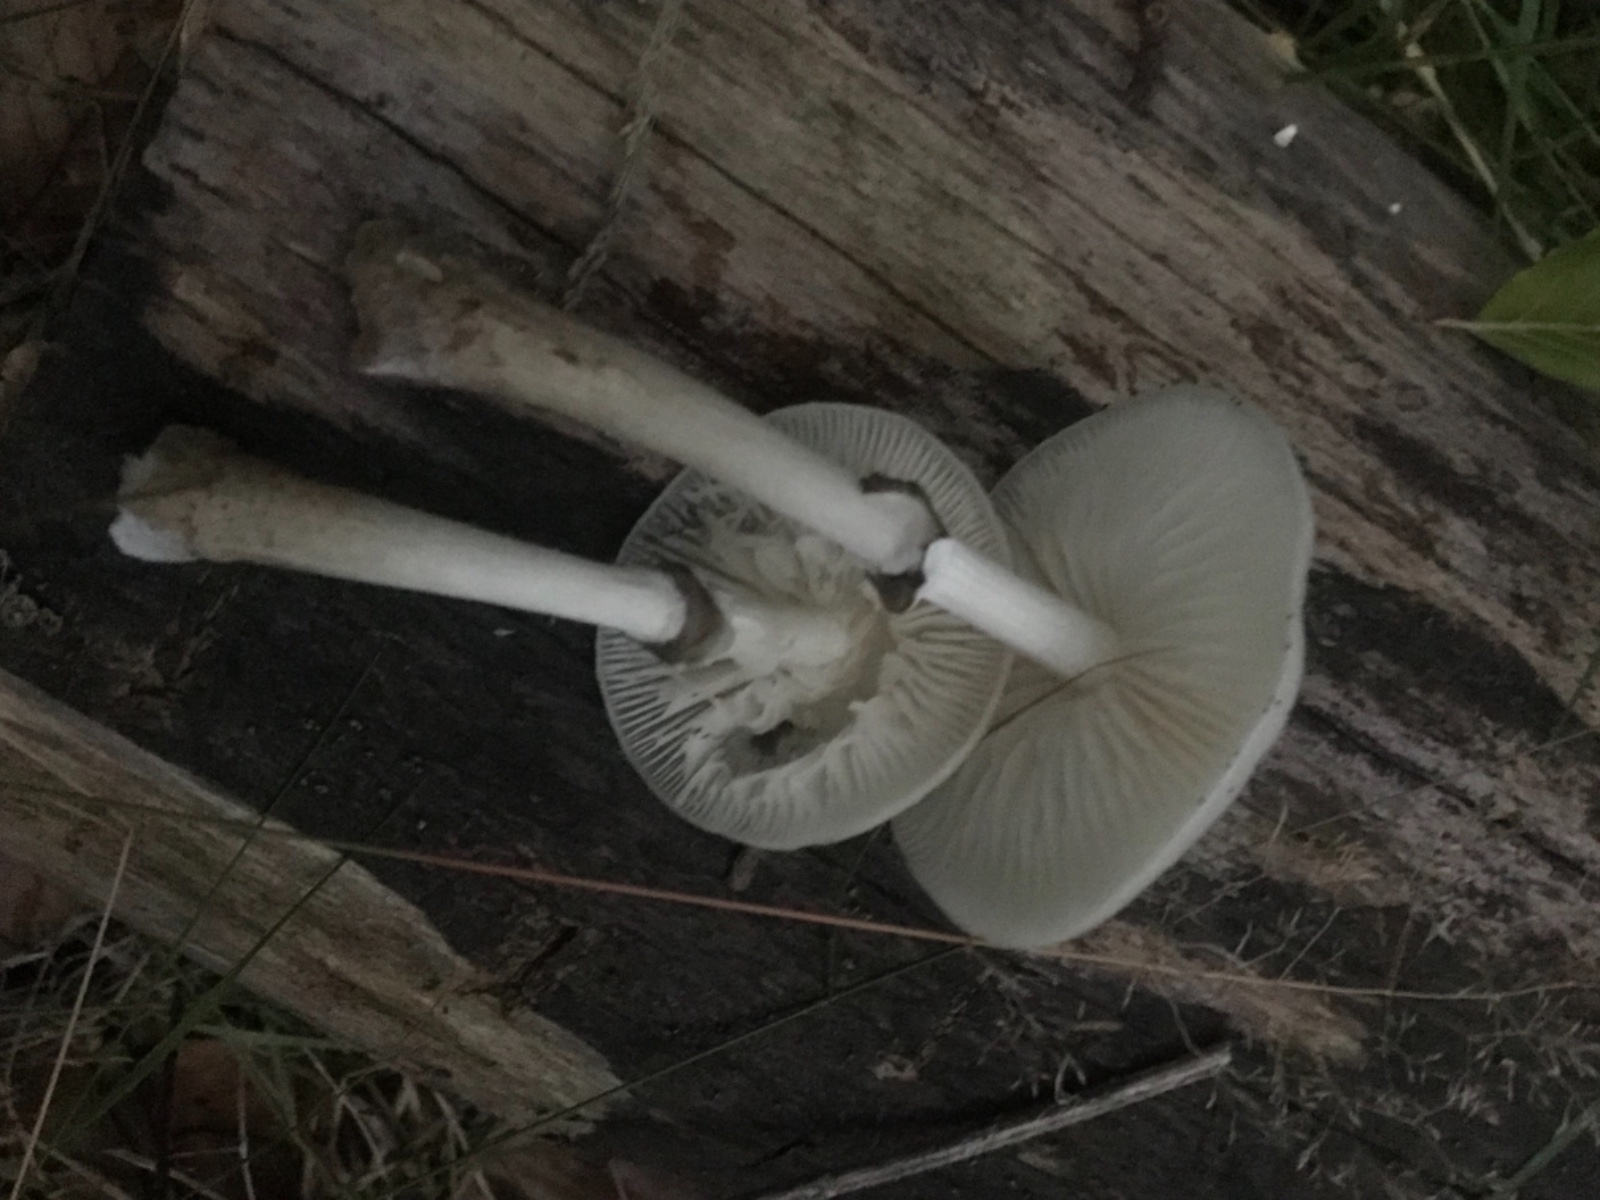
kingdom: Fungi
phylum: Basidiomycota
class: Agaricomycetes
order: Agaricales
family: Physalacriaceae
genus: Mucidula
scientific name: Mucidula mucida
